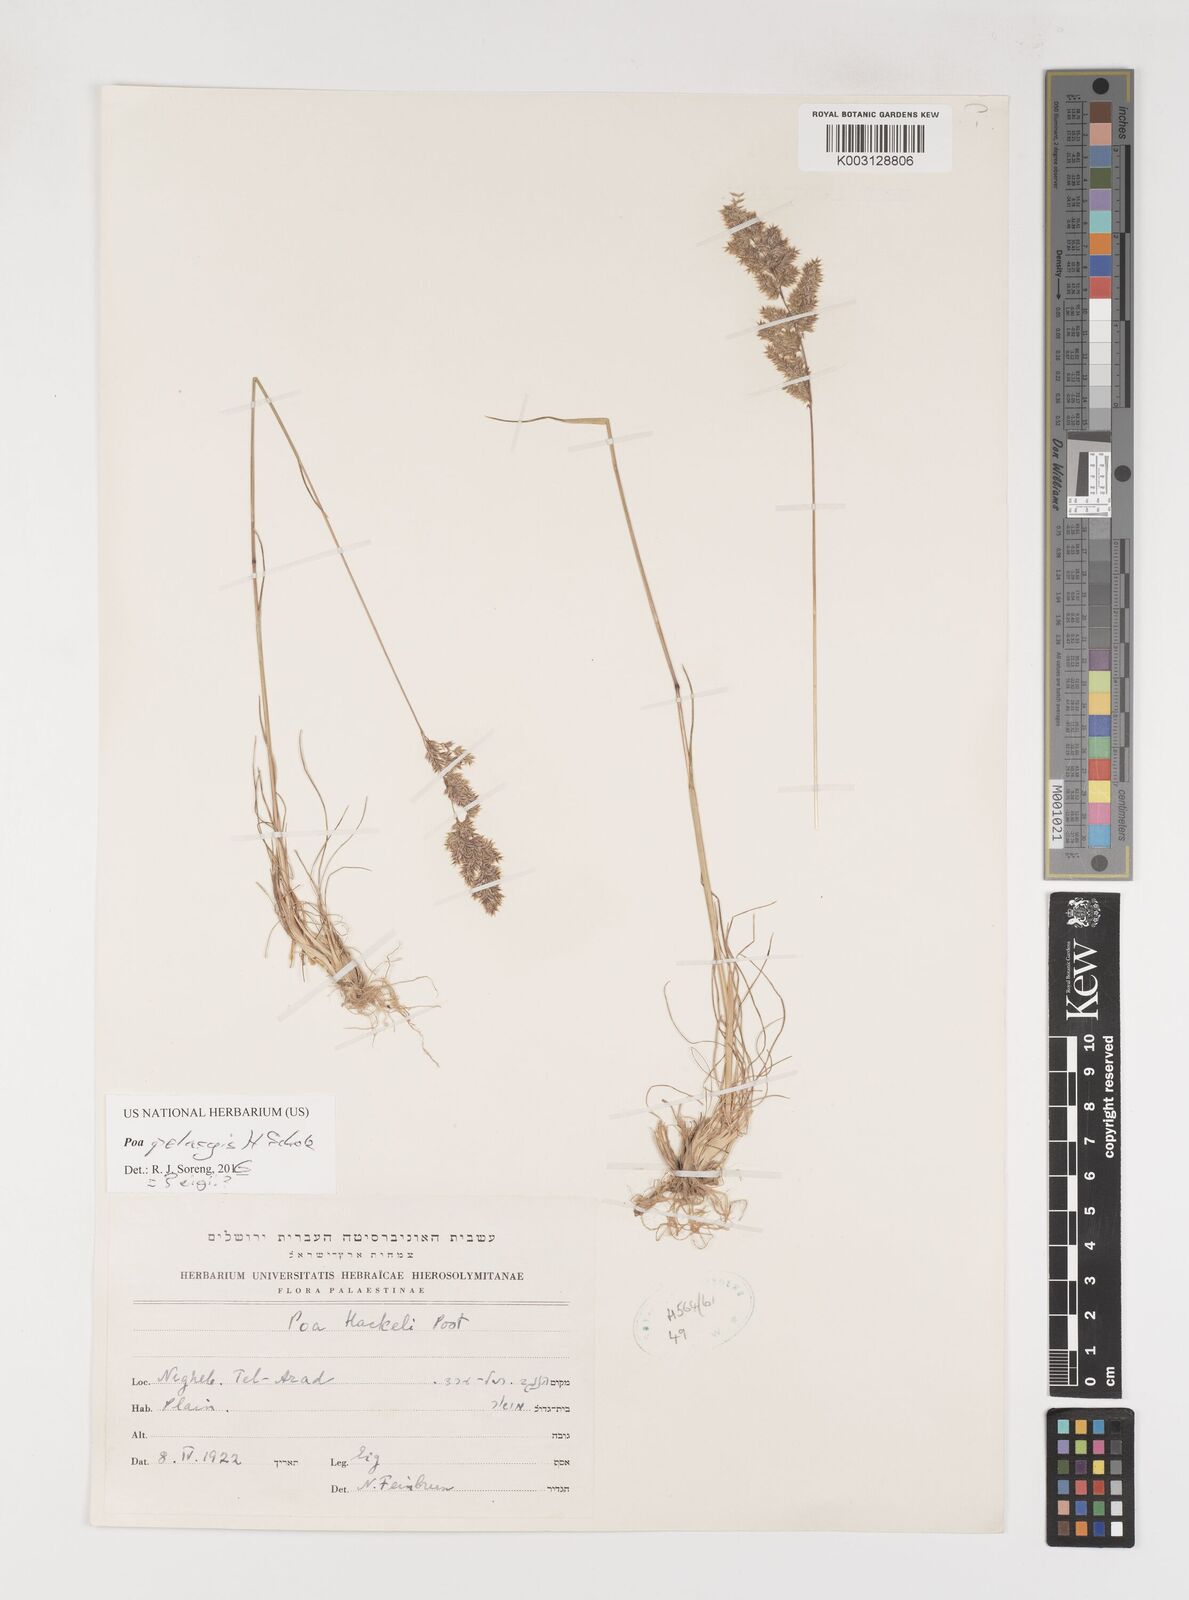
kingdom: Plantae
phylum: Tracheophyta
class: Liliopsida
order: Poales
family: Poaceae
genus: Poa
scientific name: Poa iconia
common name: Konya bluegrass
